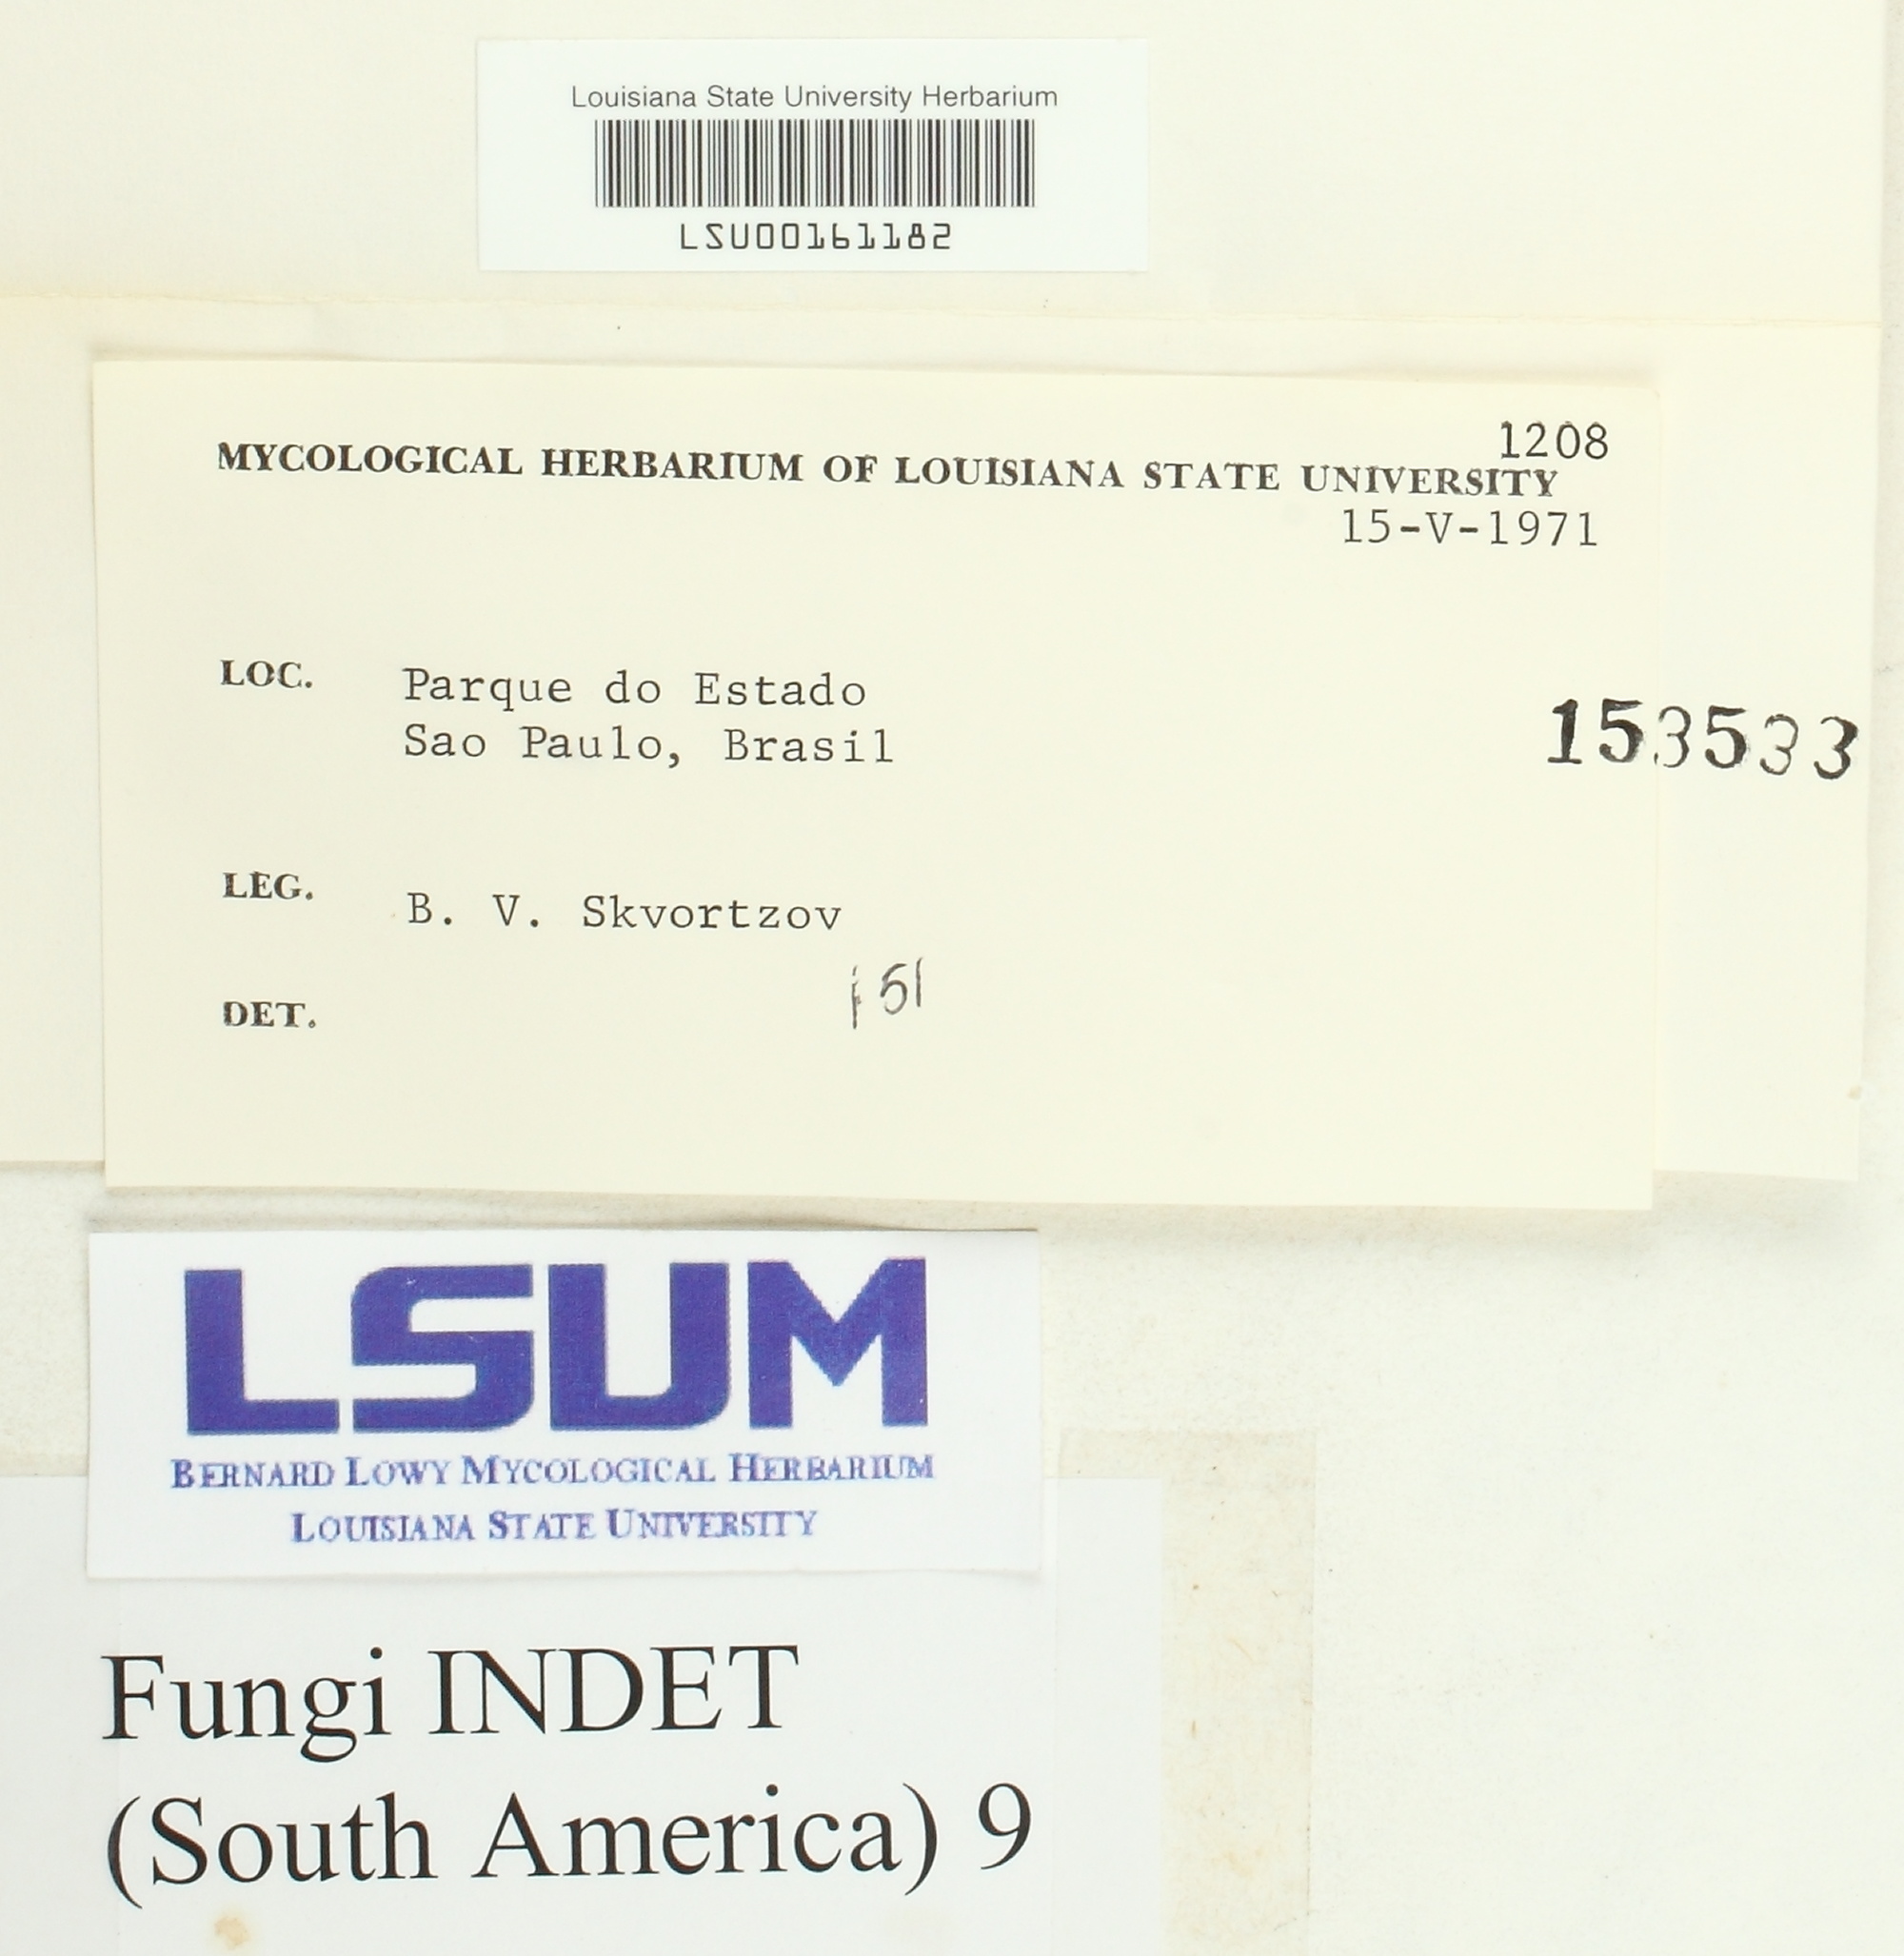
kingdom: Fungi
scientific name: Fungi
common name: Fungi
